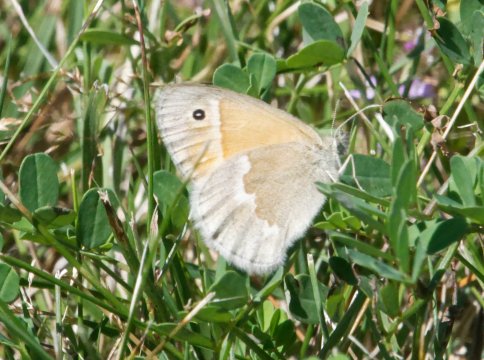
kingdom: Animalia
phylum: Arthropoda
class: Insecta
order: Lepidoptera
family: Nymphalidae
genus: Coenonympha
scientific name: Coenonympha tullia
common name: Large Heath
